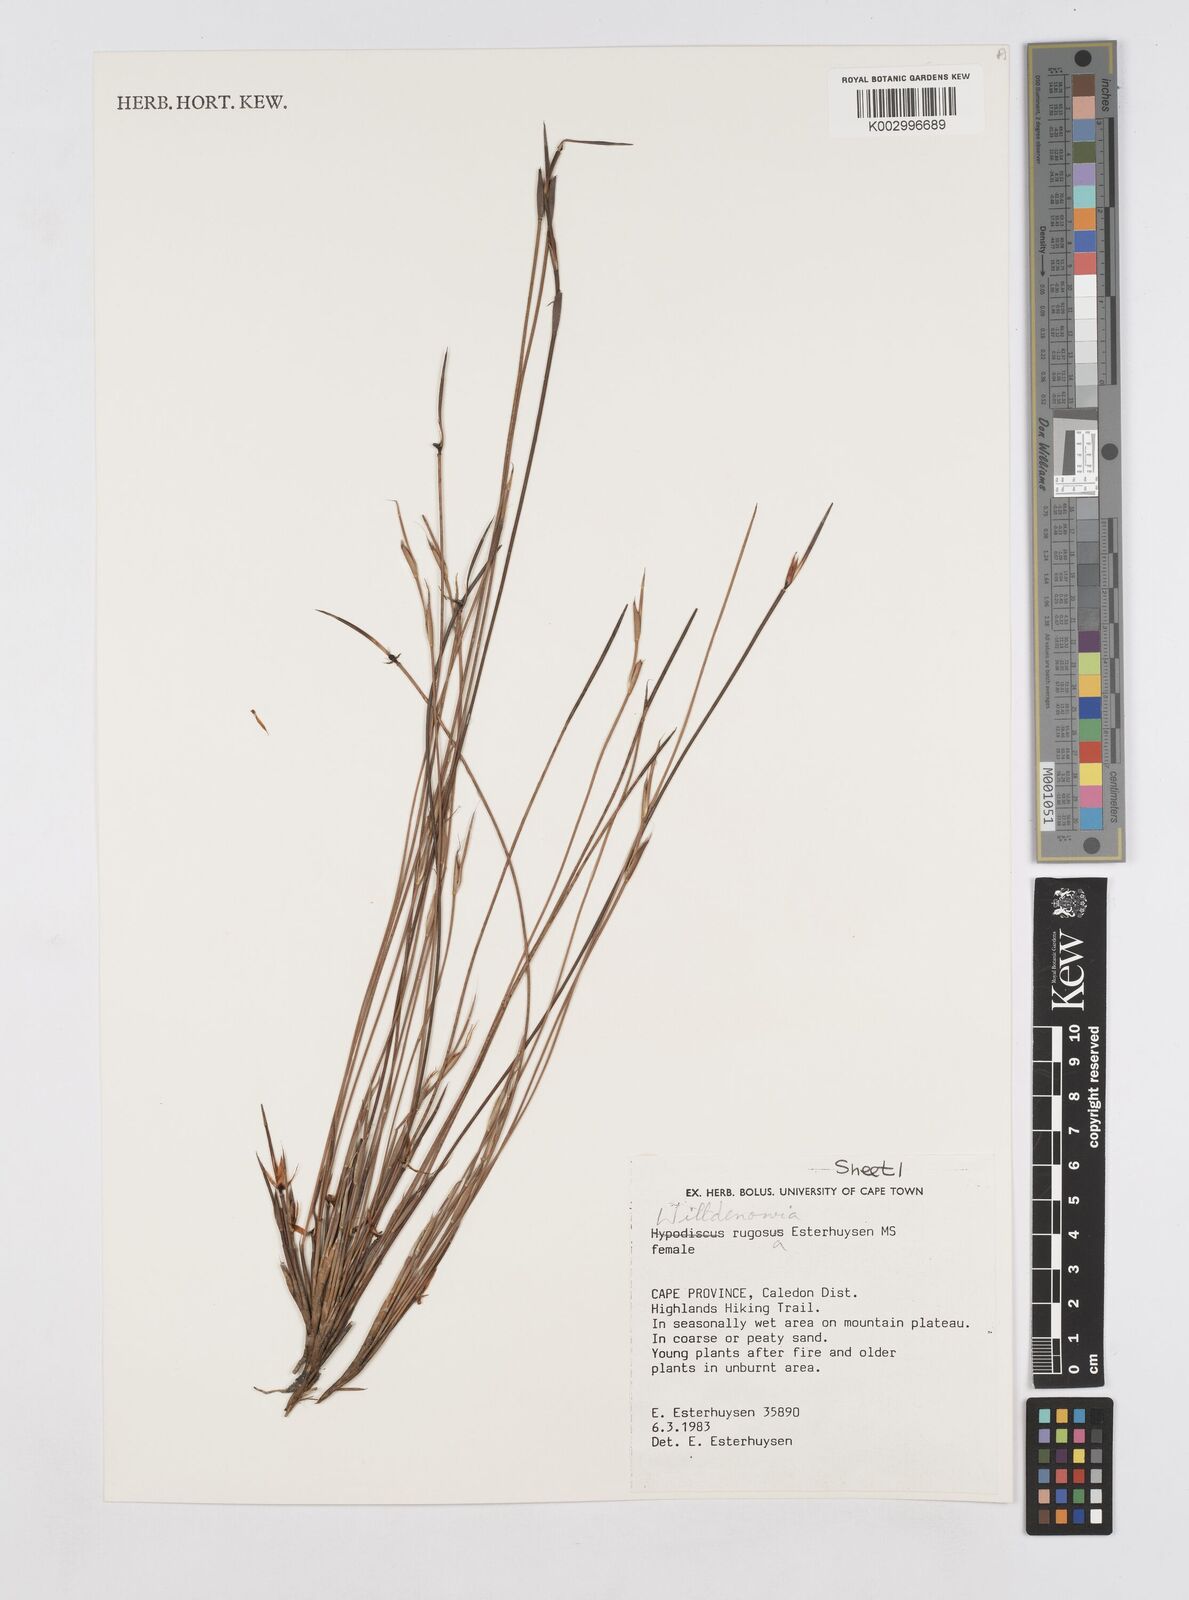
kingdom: Plantae
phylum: Tracheophyta
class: Liliopsida
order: Poales
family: Restionaceae
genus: Willdenowia
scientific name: Willdenowia glomerata
